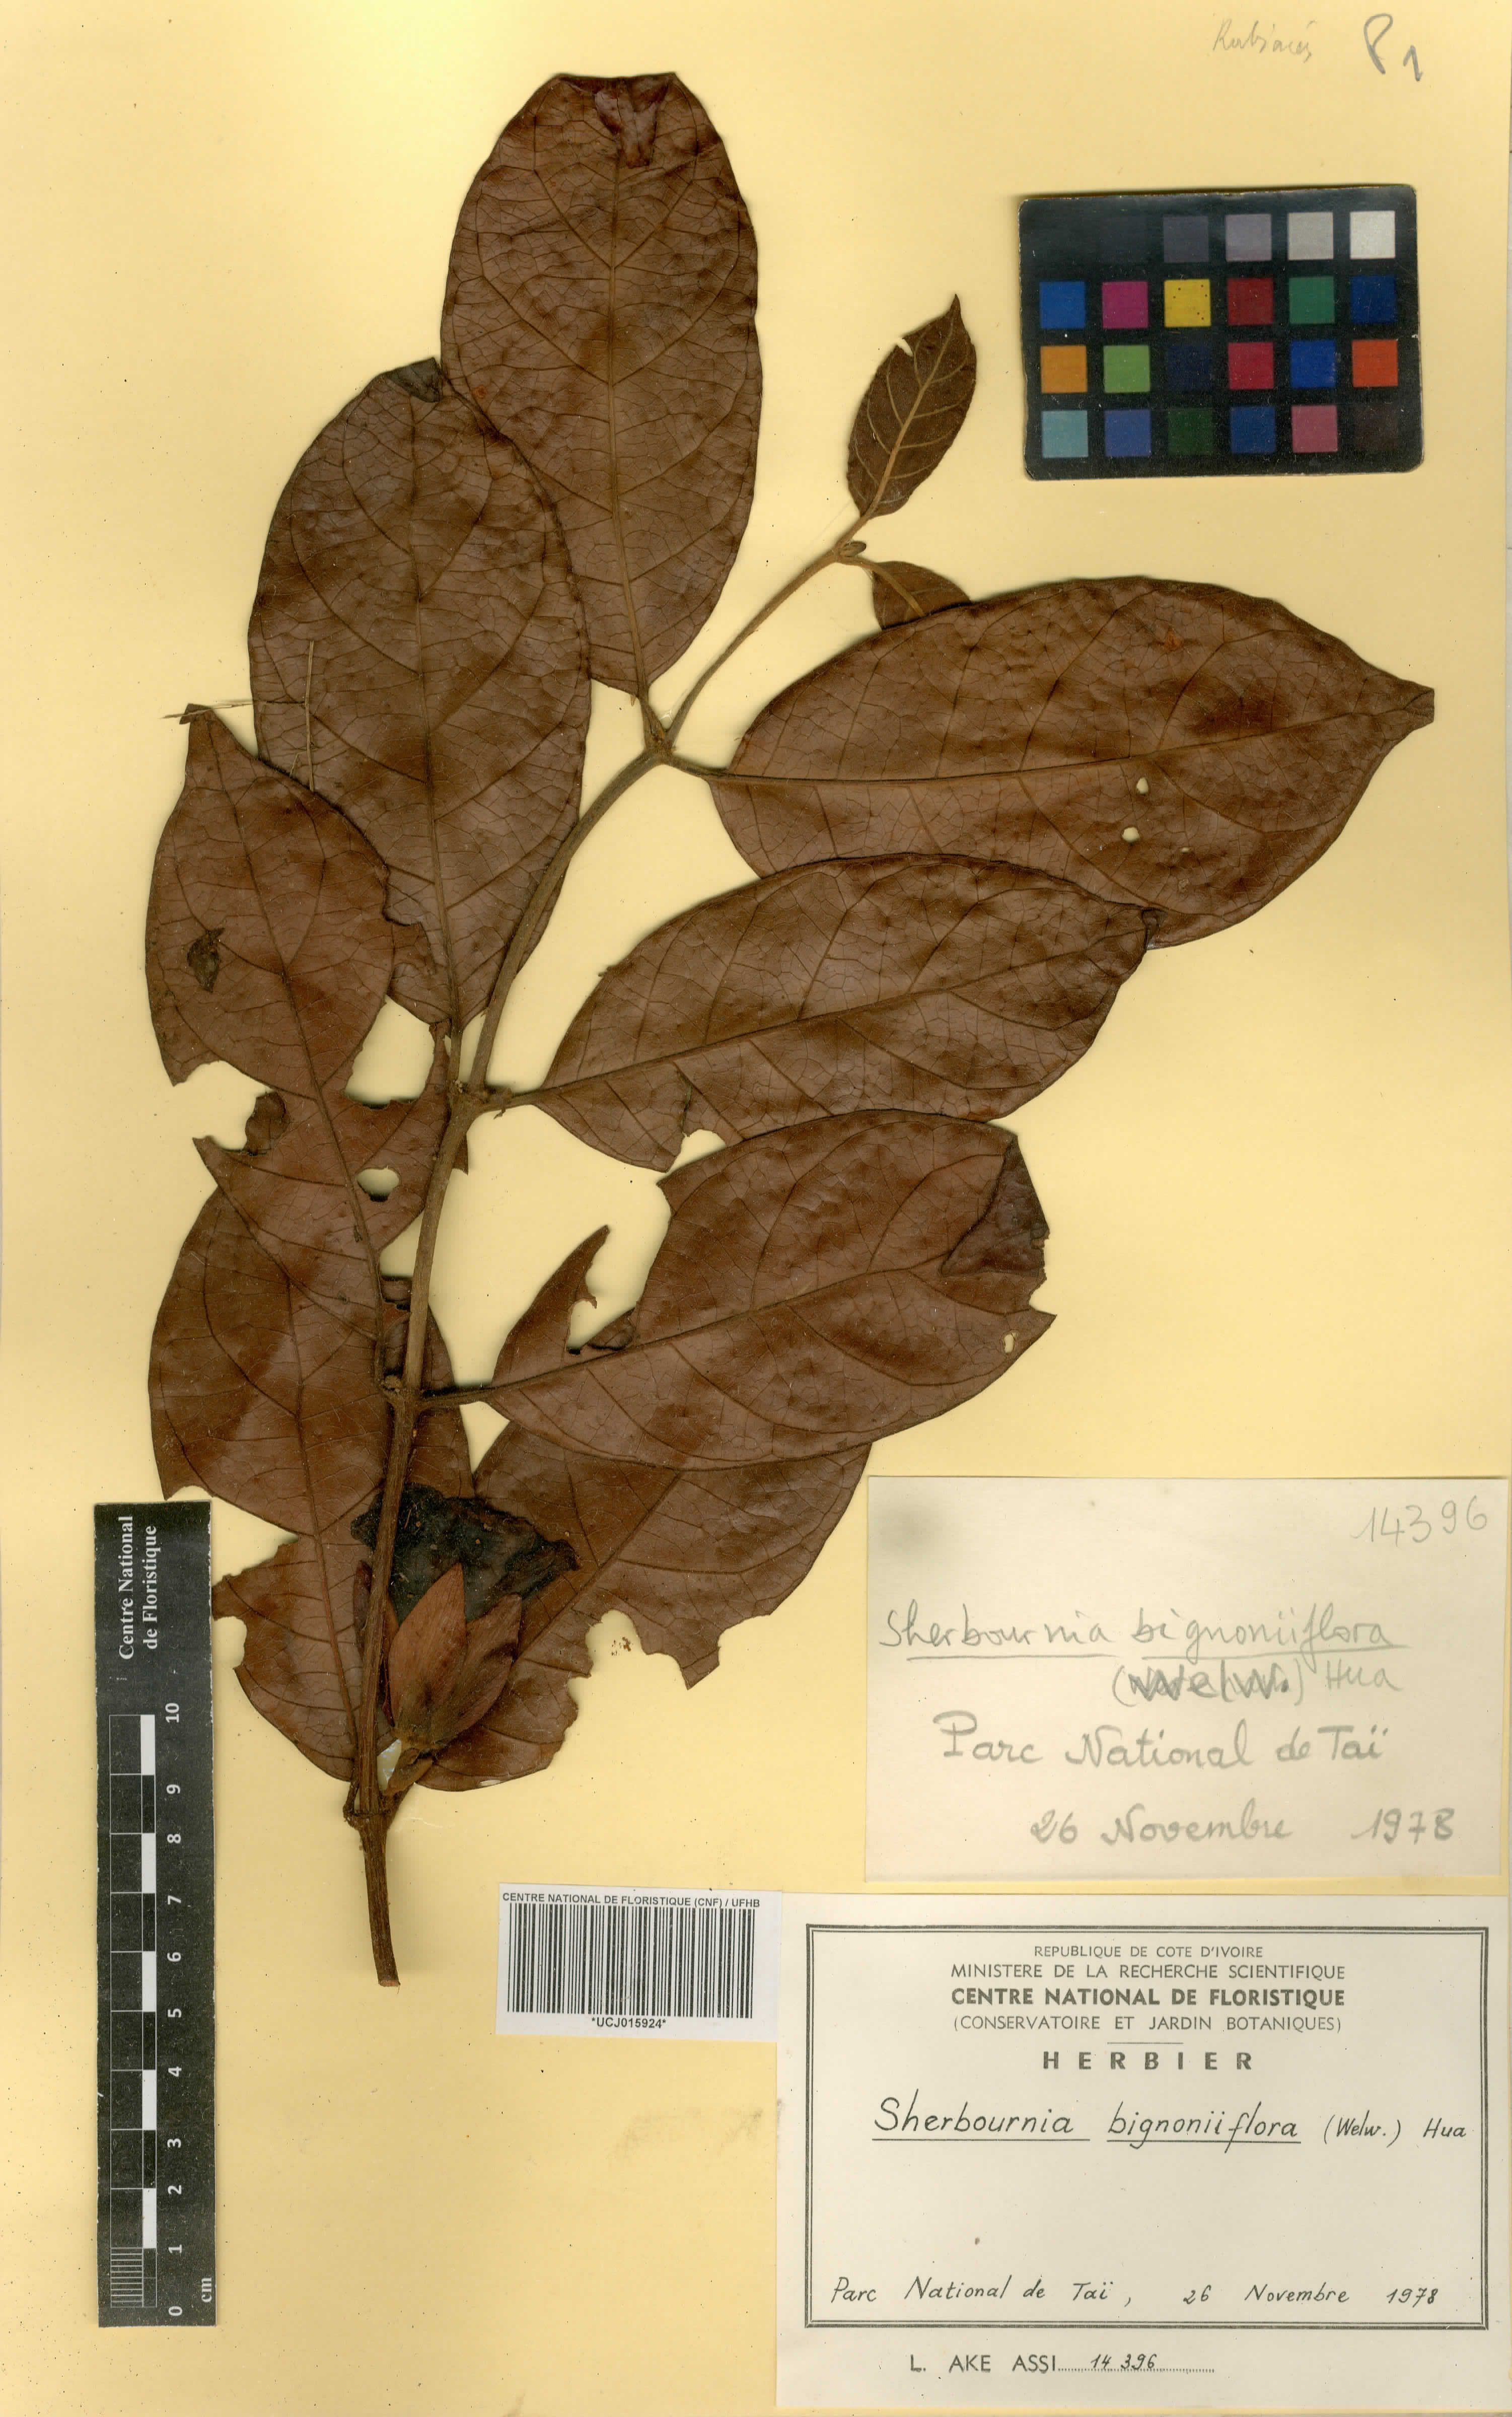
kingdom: Plantae
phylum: Tracheophyta
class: Magnoliopsida
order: Gentianales
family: Rubiaceae
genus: Sherbournia
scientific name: Sherbournia bignoniiflora
